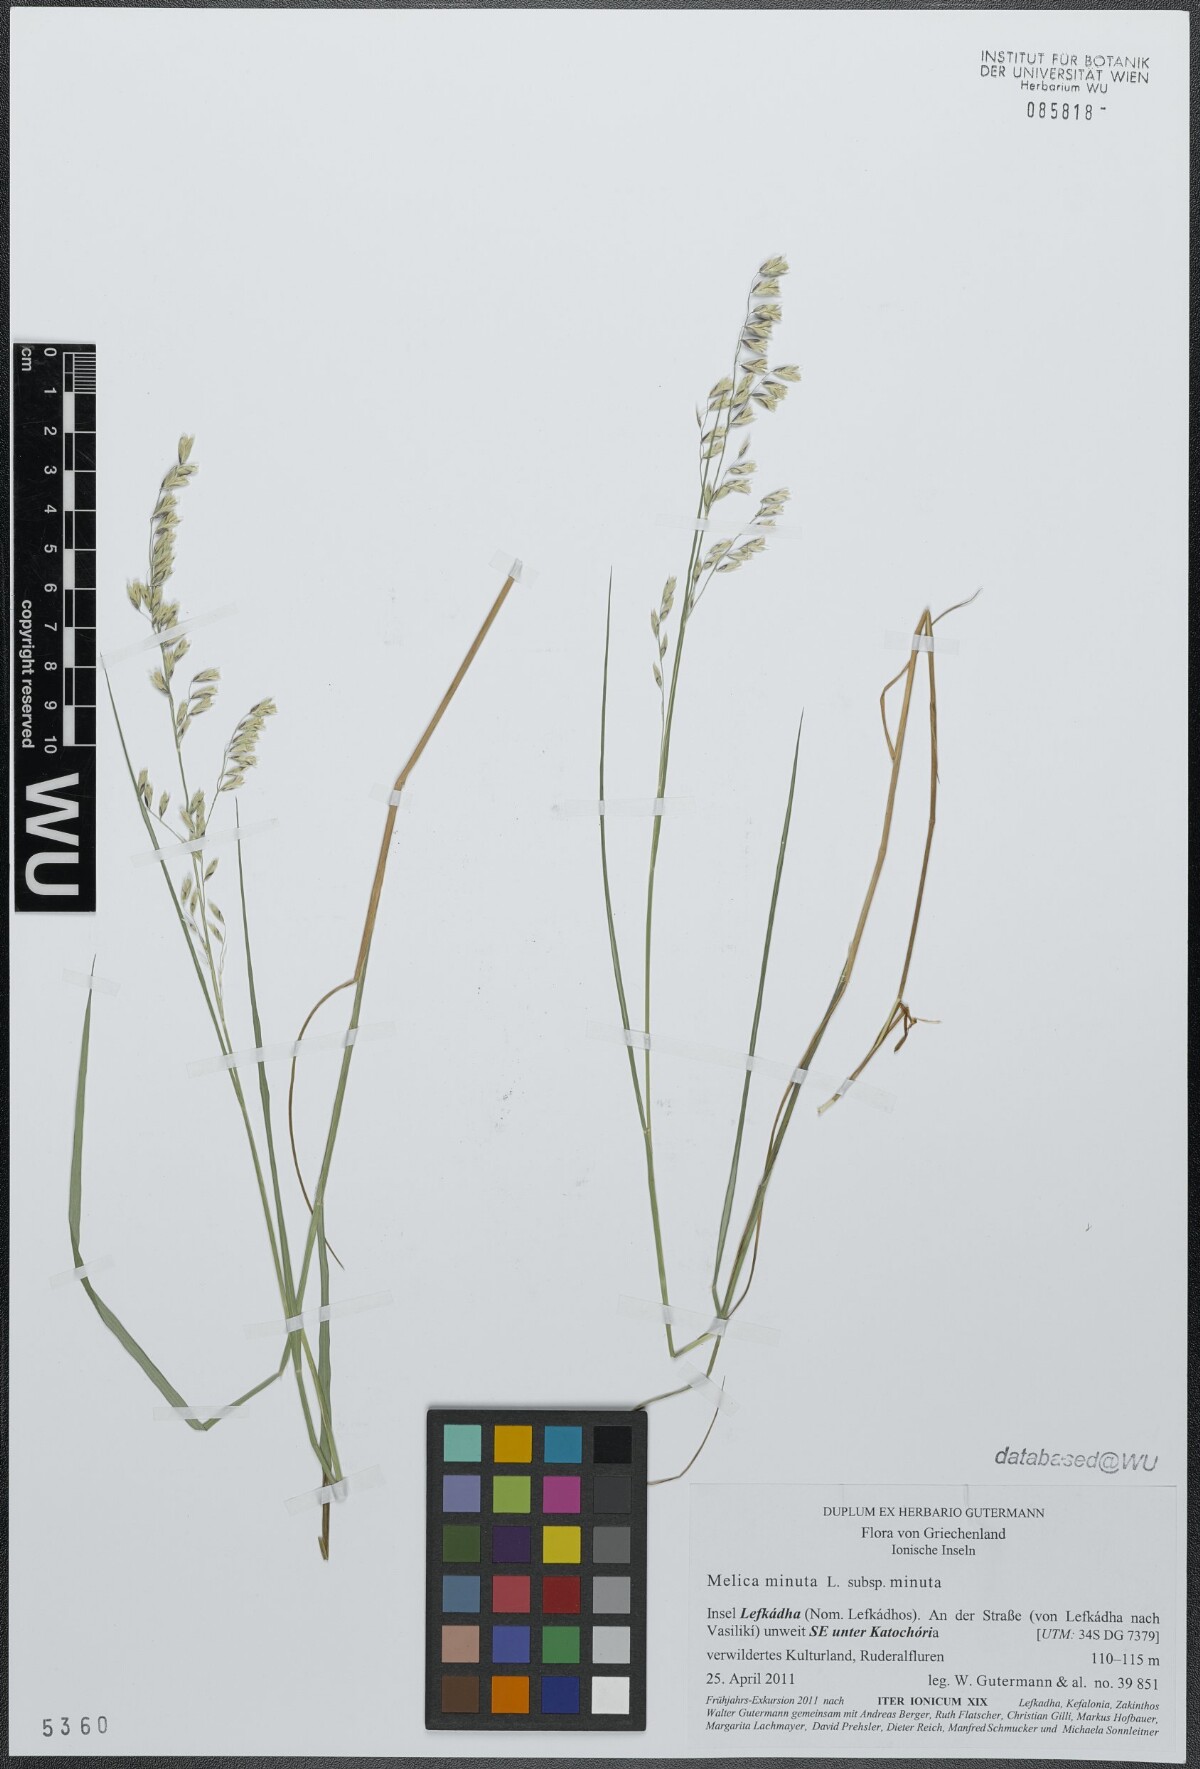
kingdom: Plantae
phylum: Tracheophyta
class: Liliopsida
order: Poales
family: Poaceae
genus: Melica
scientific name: Melica minuta
